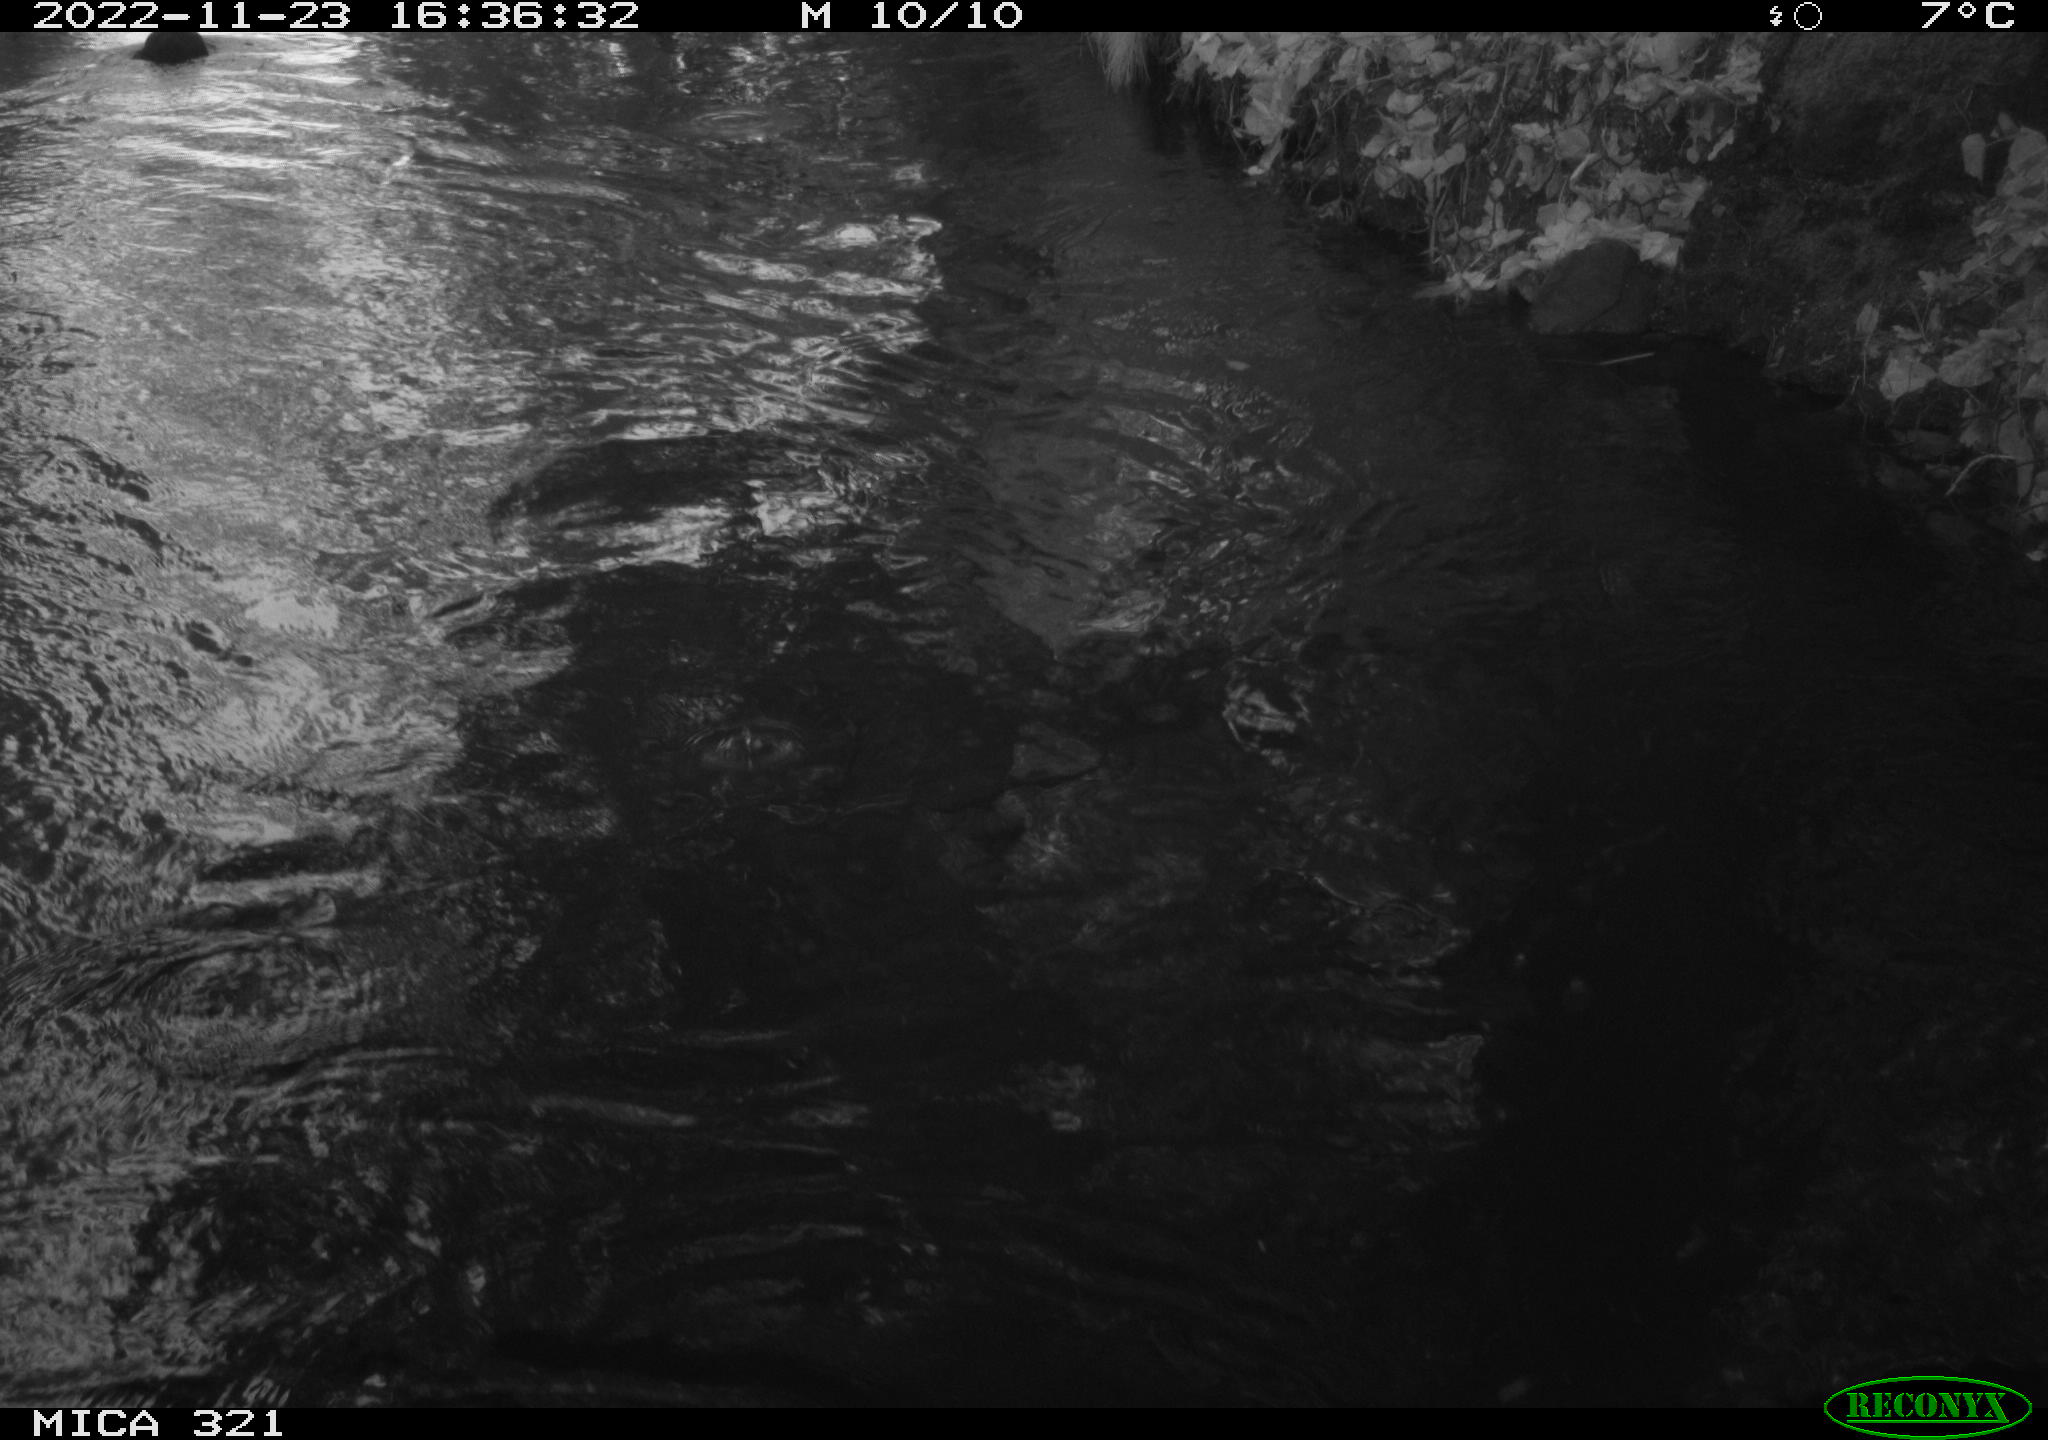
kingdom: Animalia
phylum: Chordata
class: Aves
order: Anseriformes
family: Anatidae
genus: Anas
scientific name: Anas
